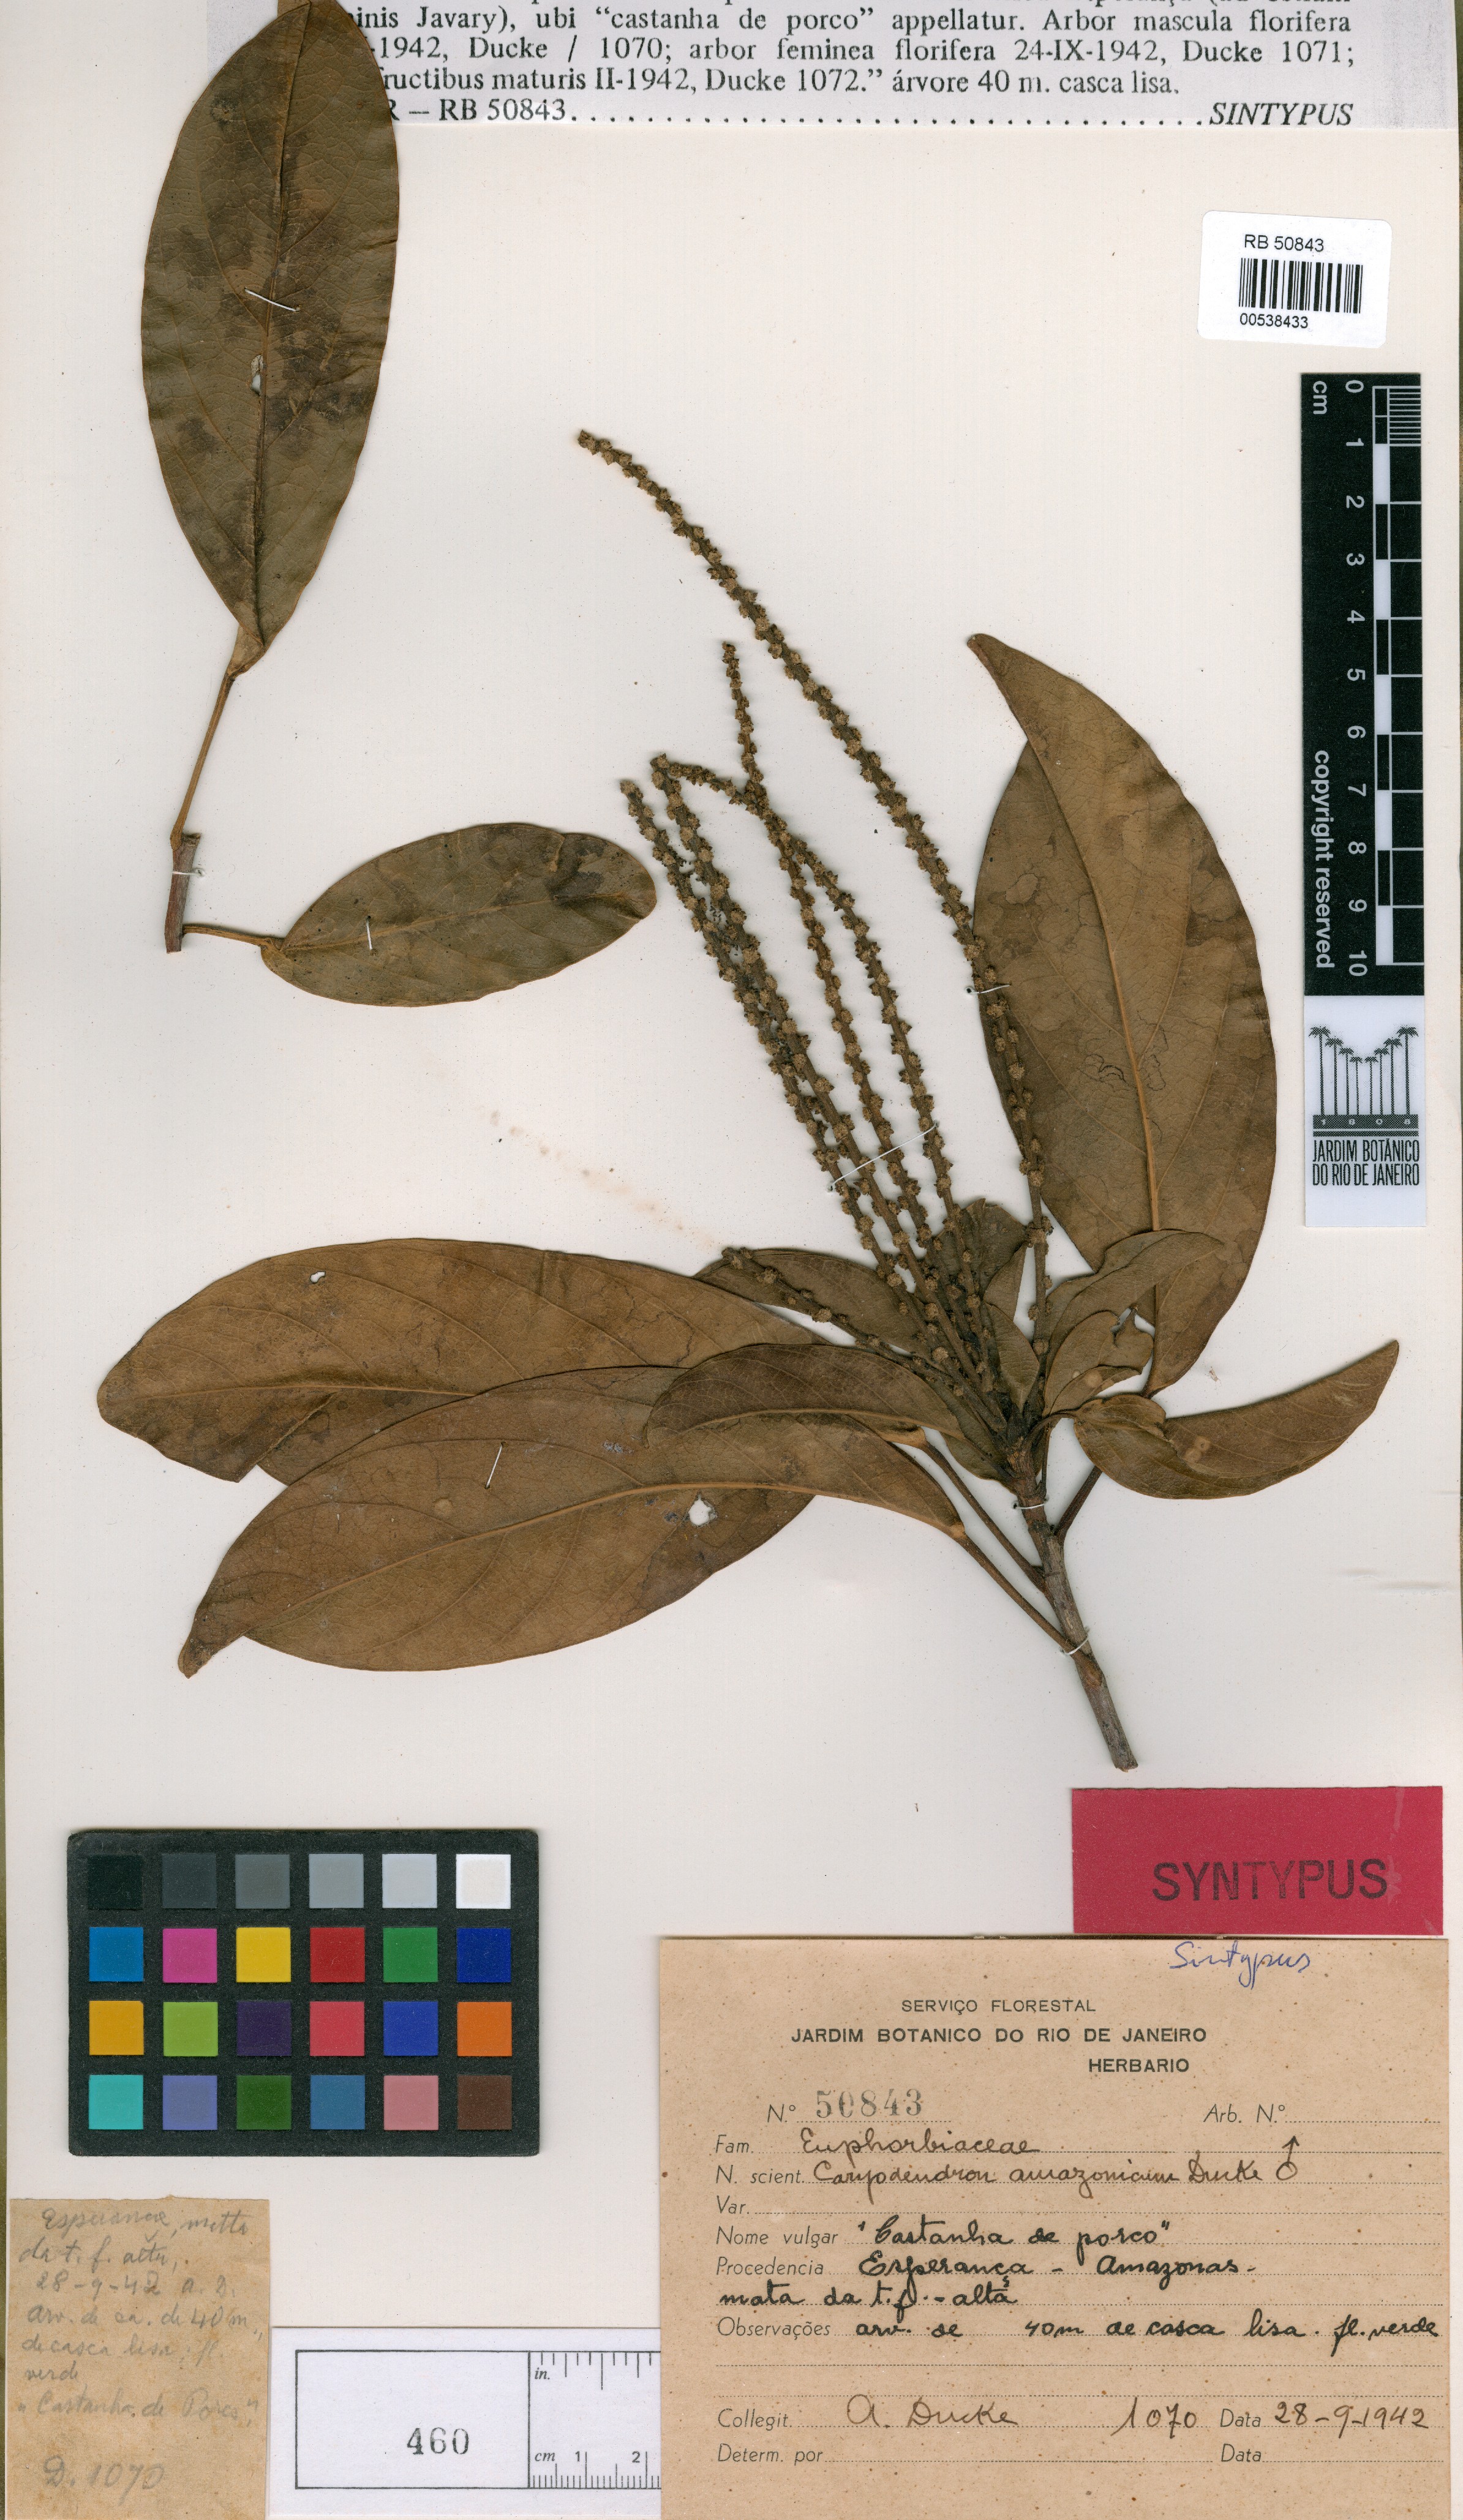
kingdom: Plantae
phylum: Tracheophyta
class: Magnoliopsida
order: Malpighiales
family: Euphorbiaceae
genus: Caryodendron
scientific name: Caryodendron amazonicum
